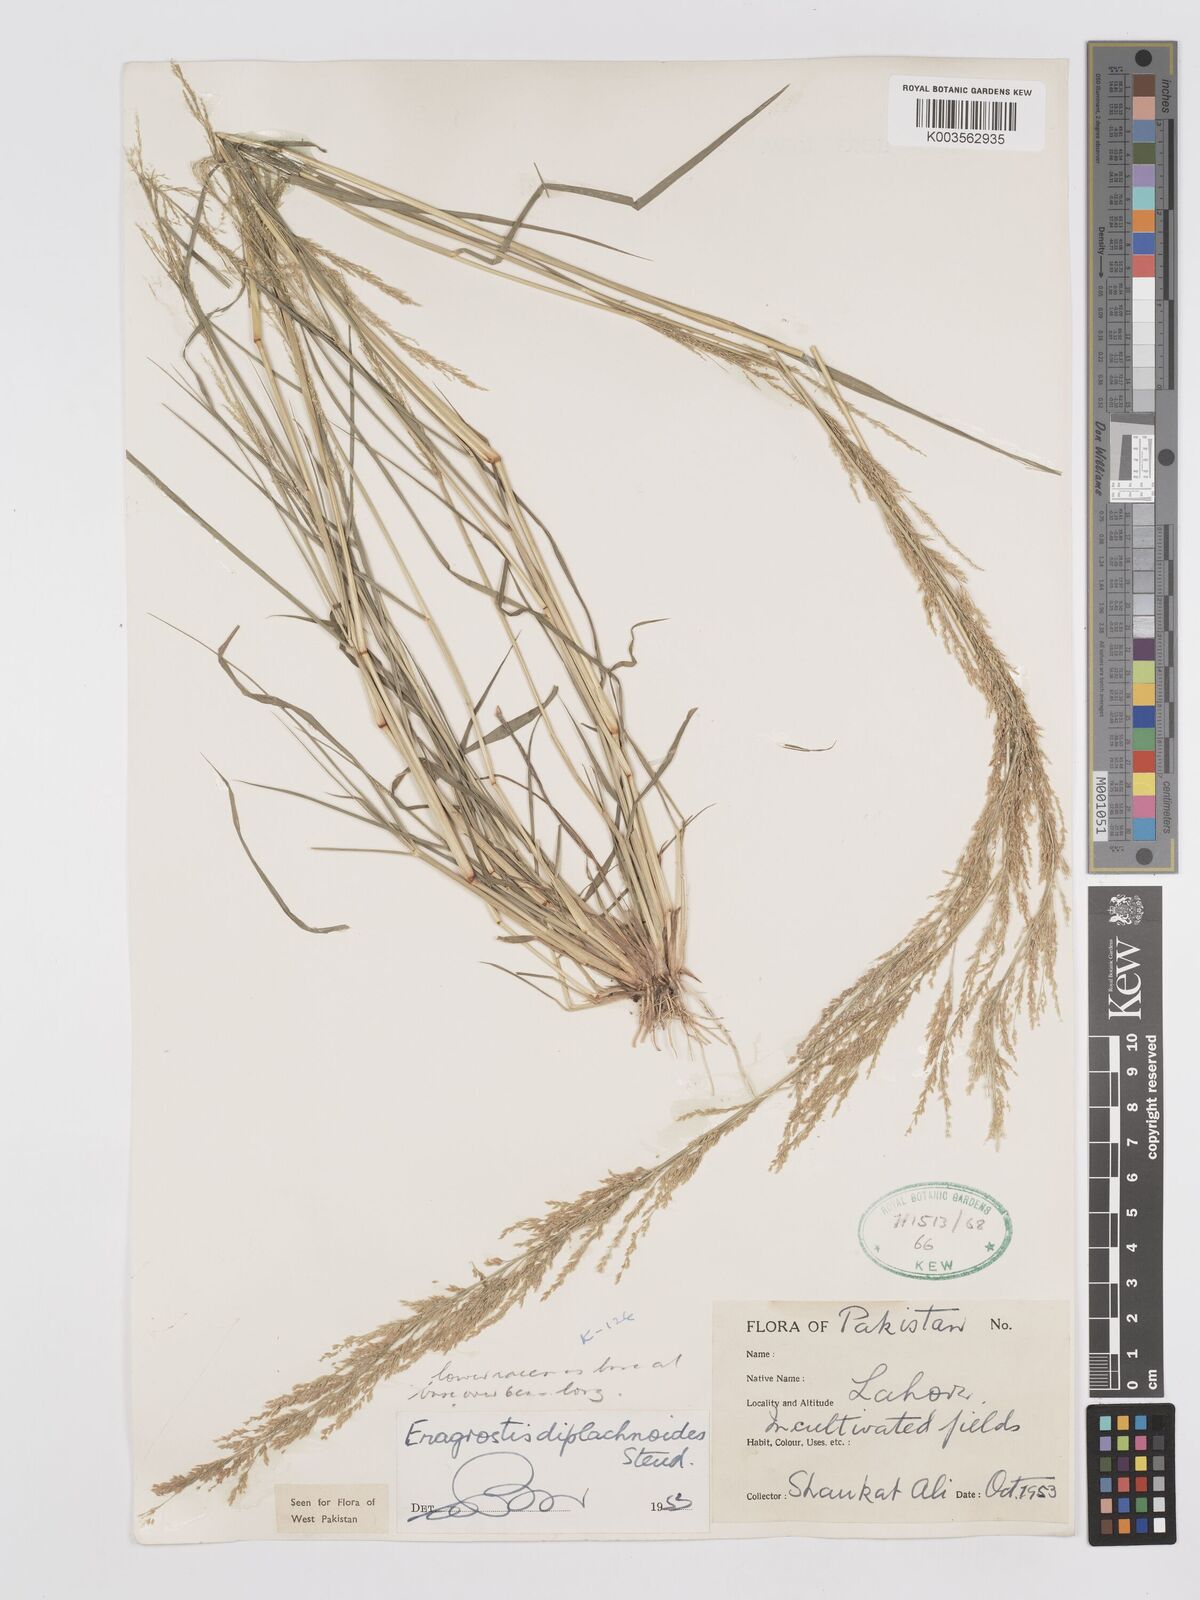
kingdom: Plantae
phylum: Tracheophyta
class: Liliopsida
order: Poales
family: Poaceae
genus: Eragrostis
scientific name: Eragrostis japonica
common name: Pond lovegrass
